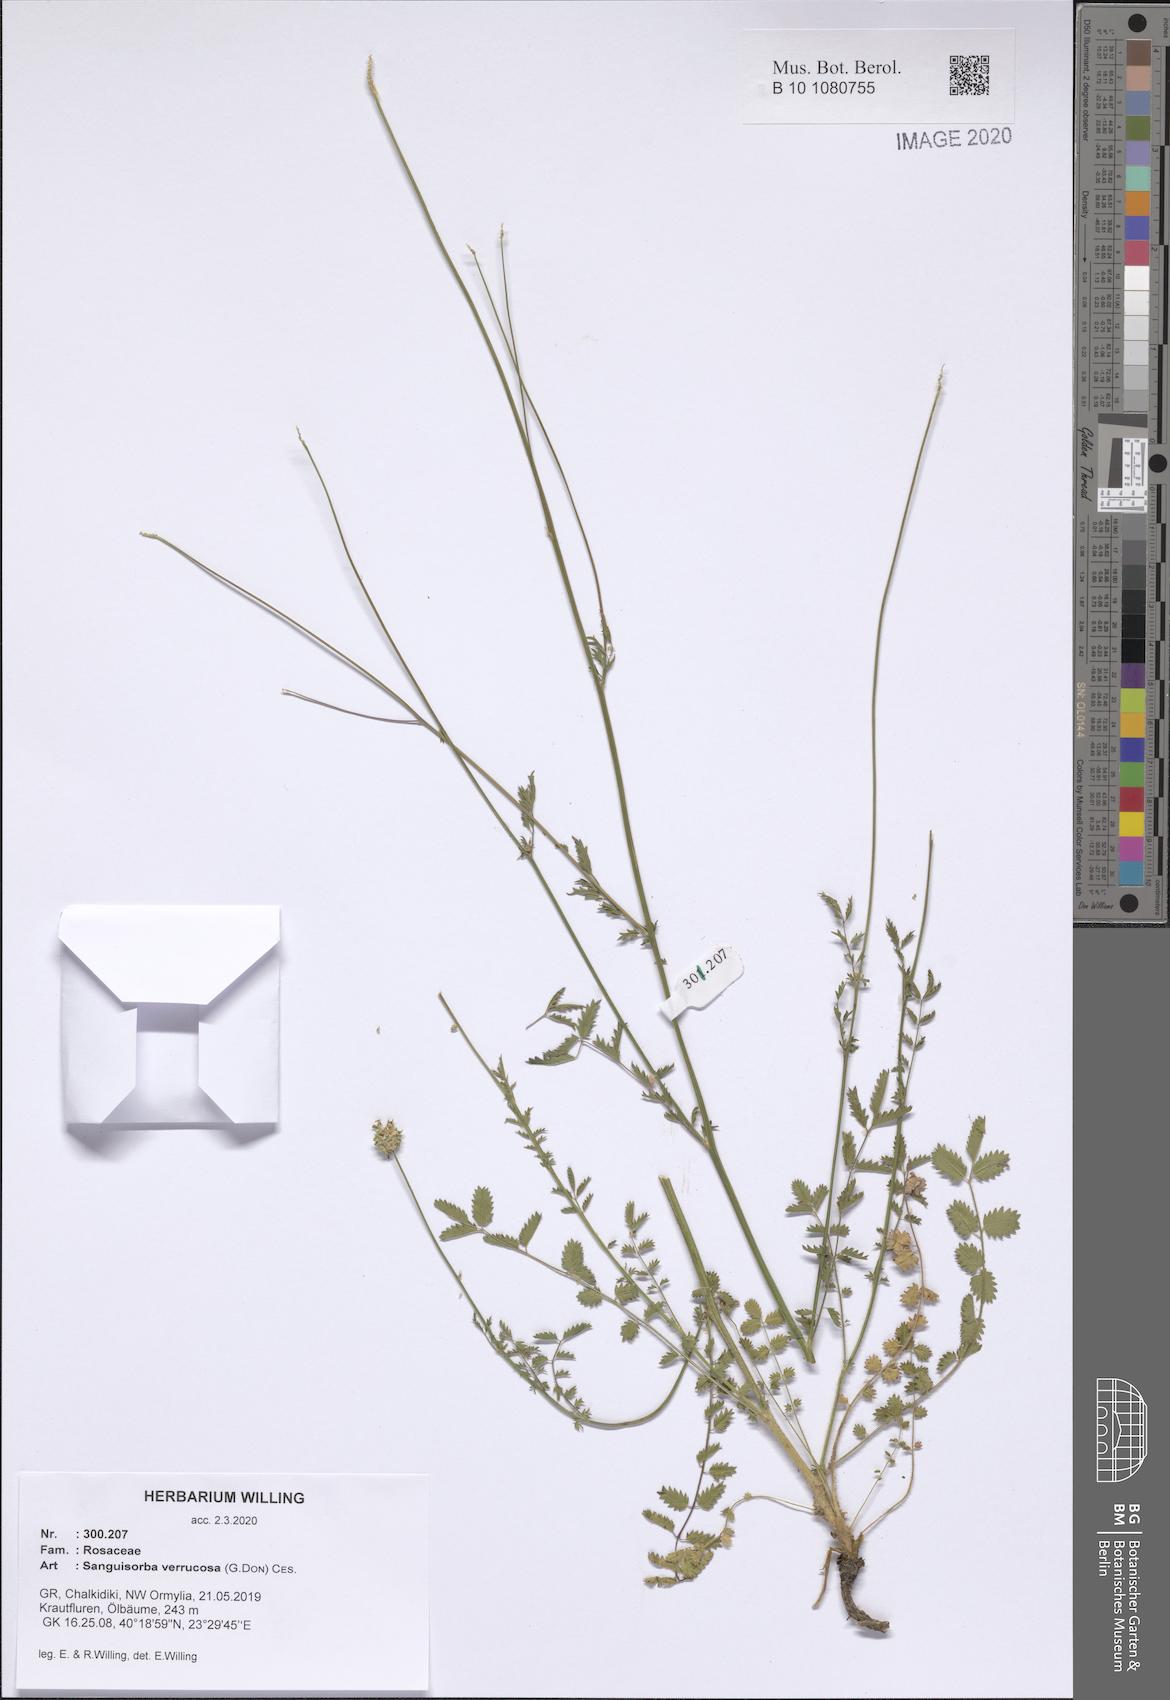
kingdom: Plantae
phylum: Tracheophyta
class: Magnoliopsida
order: Rosales
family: Rosaceae
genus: Poterium
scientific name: Poterium verrucosum
